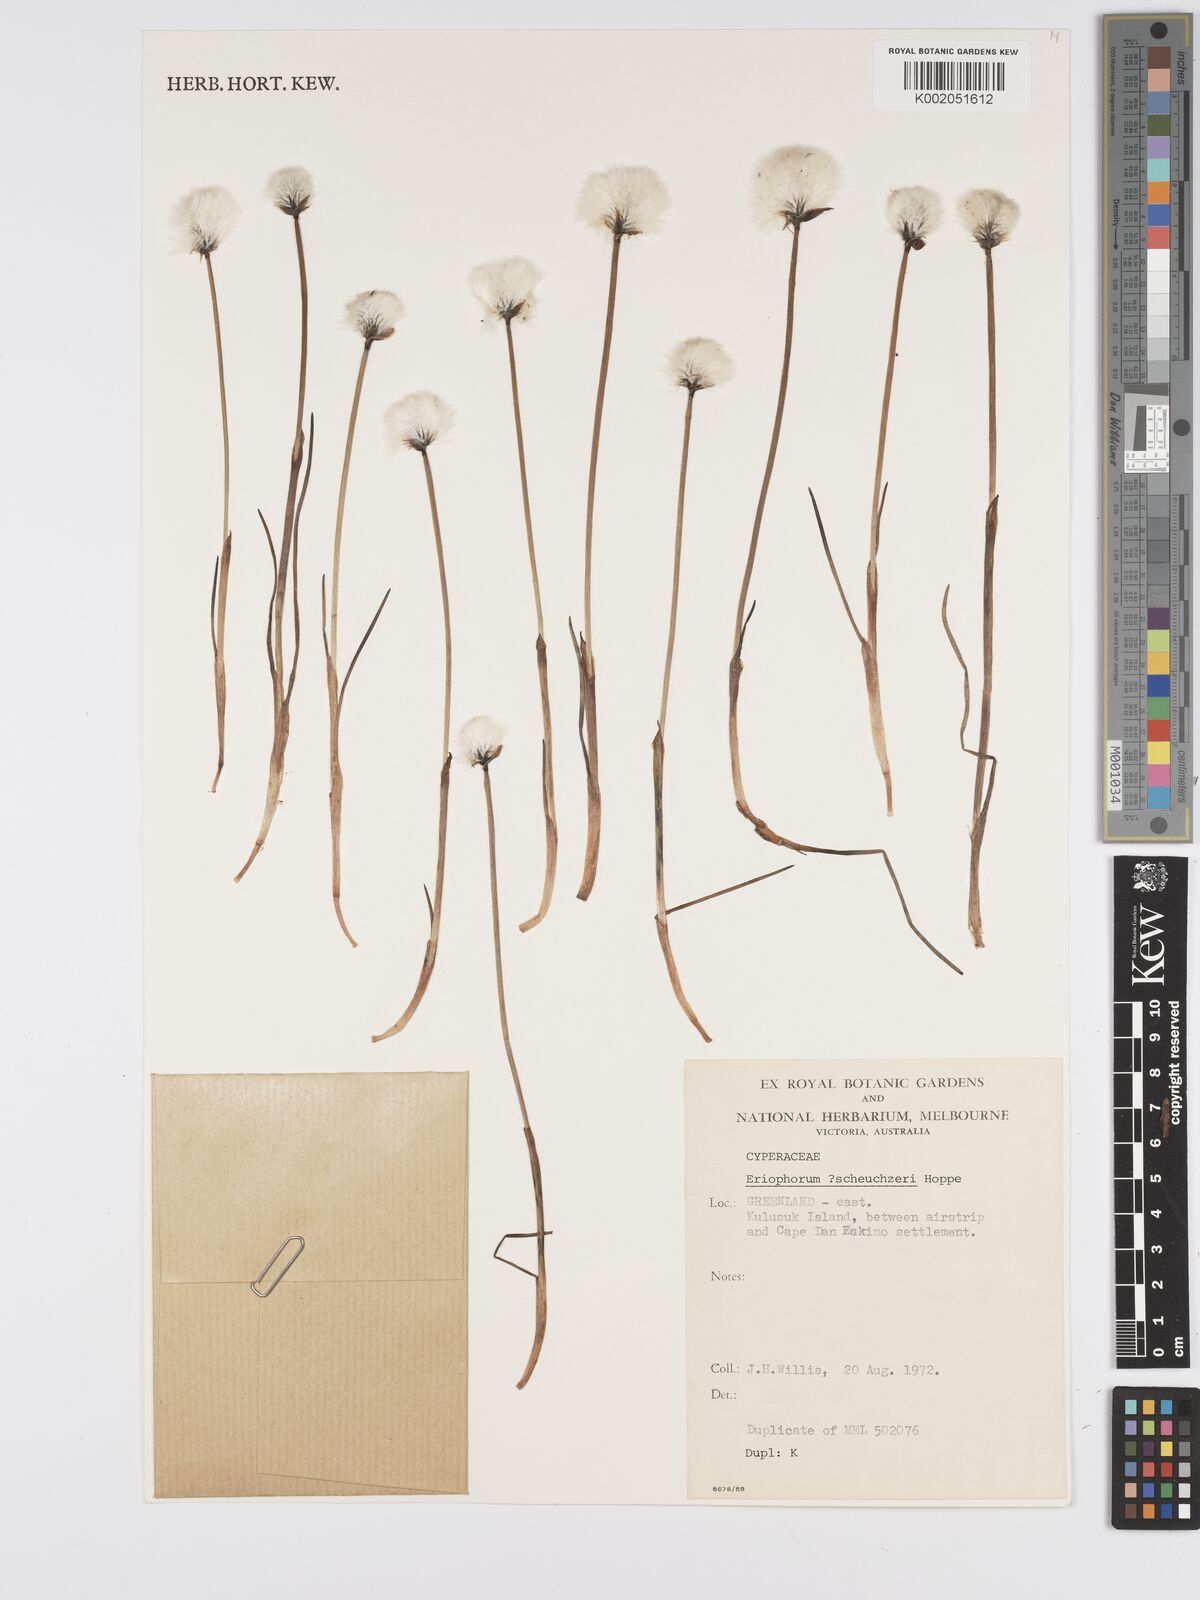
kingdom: Plantae
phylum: Tracheophyta
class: Liliopsida
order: Poales
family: Cyperaceae
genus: Eriophorum
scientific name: Eriophorum scheuchzeri
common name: Scheuchzer's cottongrass
